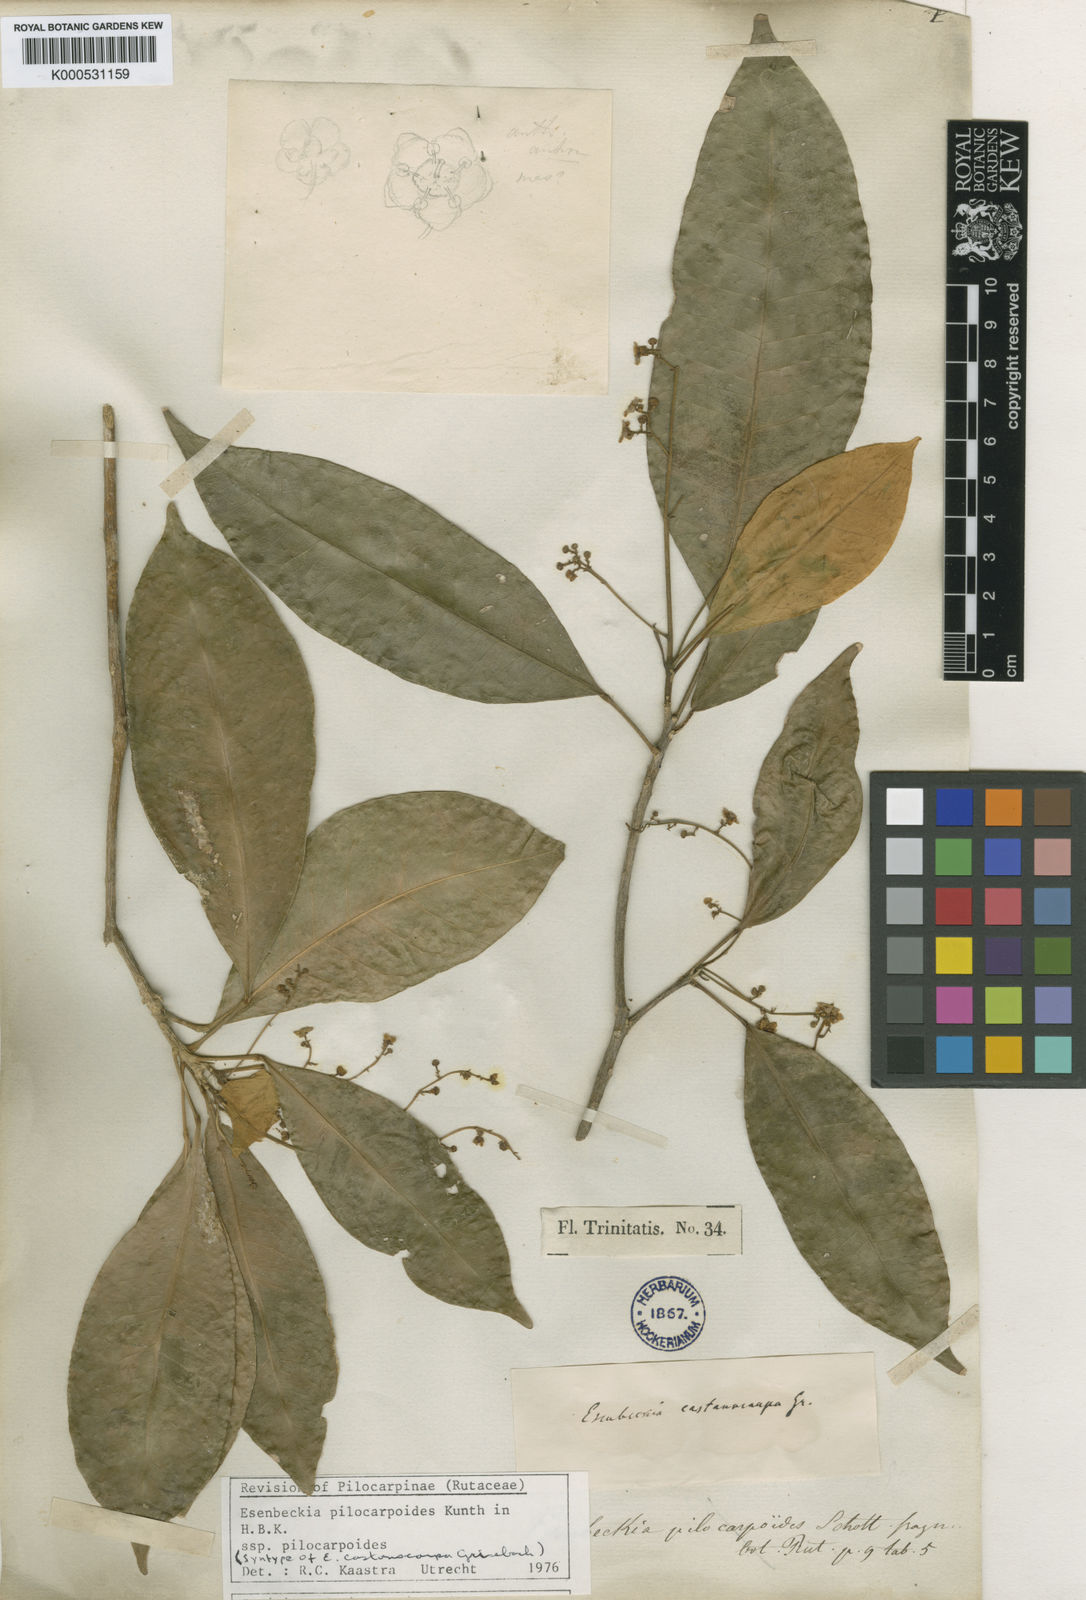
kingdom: Plantae
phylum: Tracheophyta
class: Magnoliopsida
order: Sapindales
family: Rutaceae
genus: Esenbeckia
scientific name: Esenbeckia
